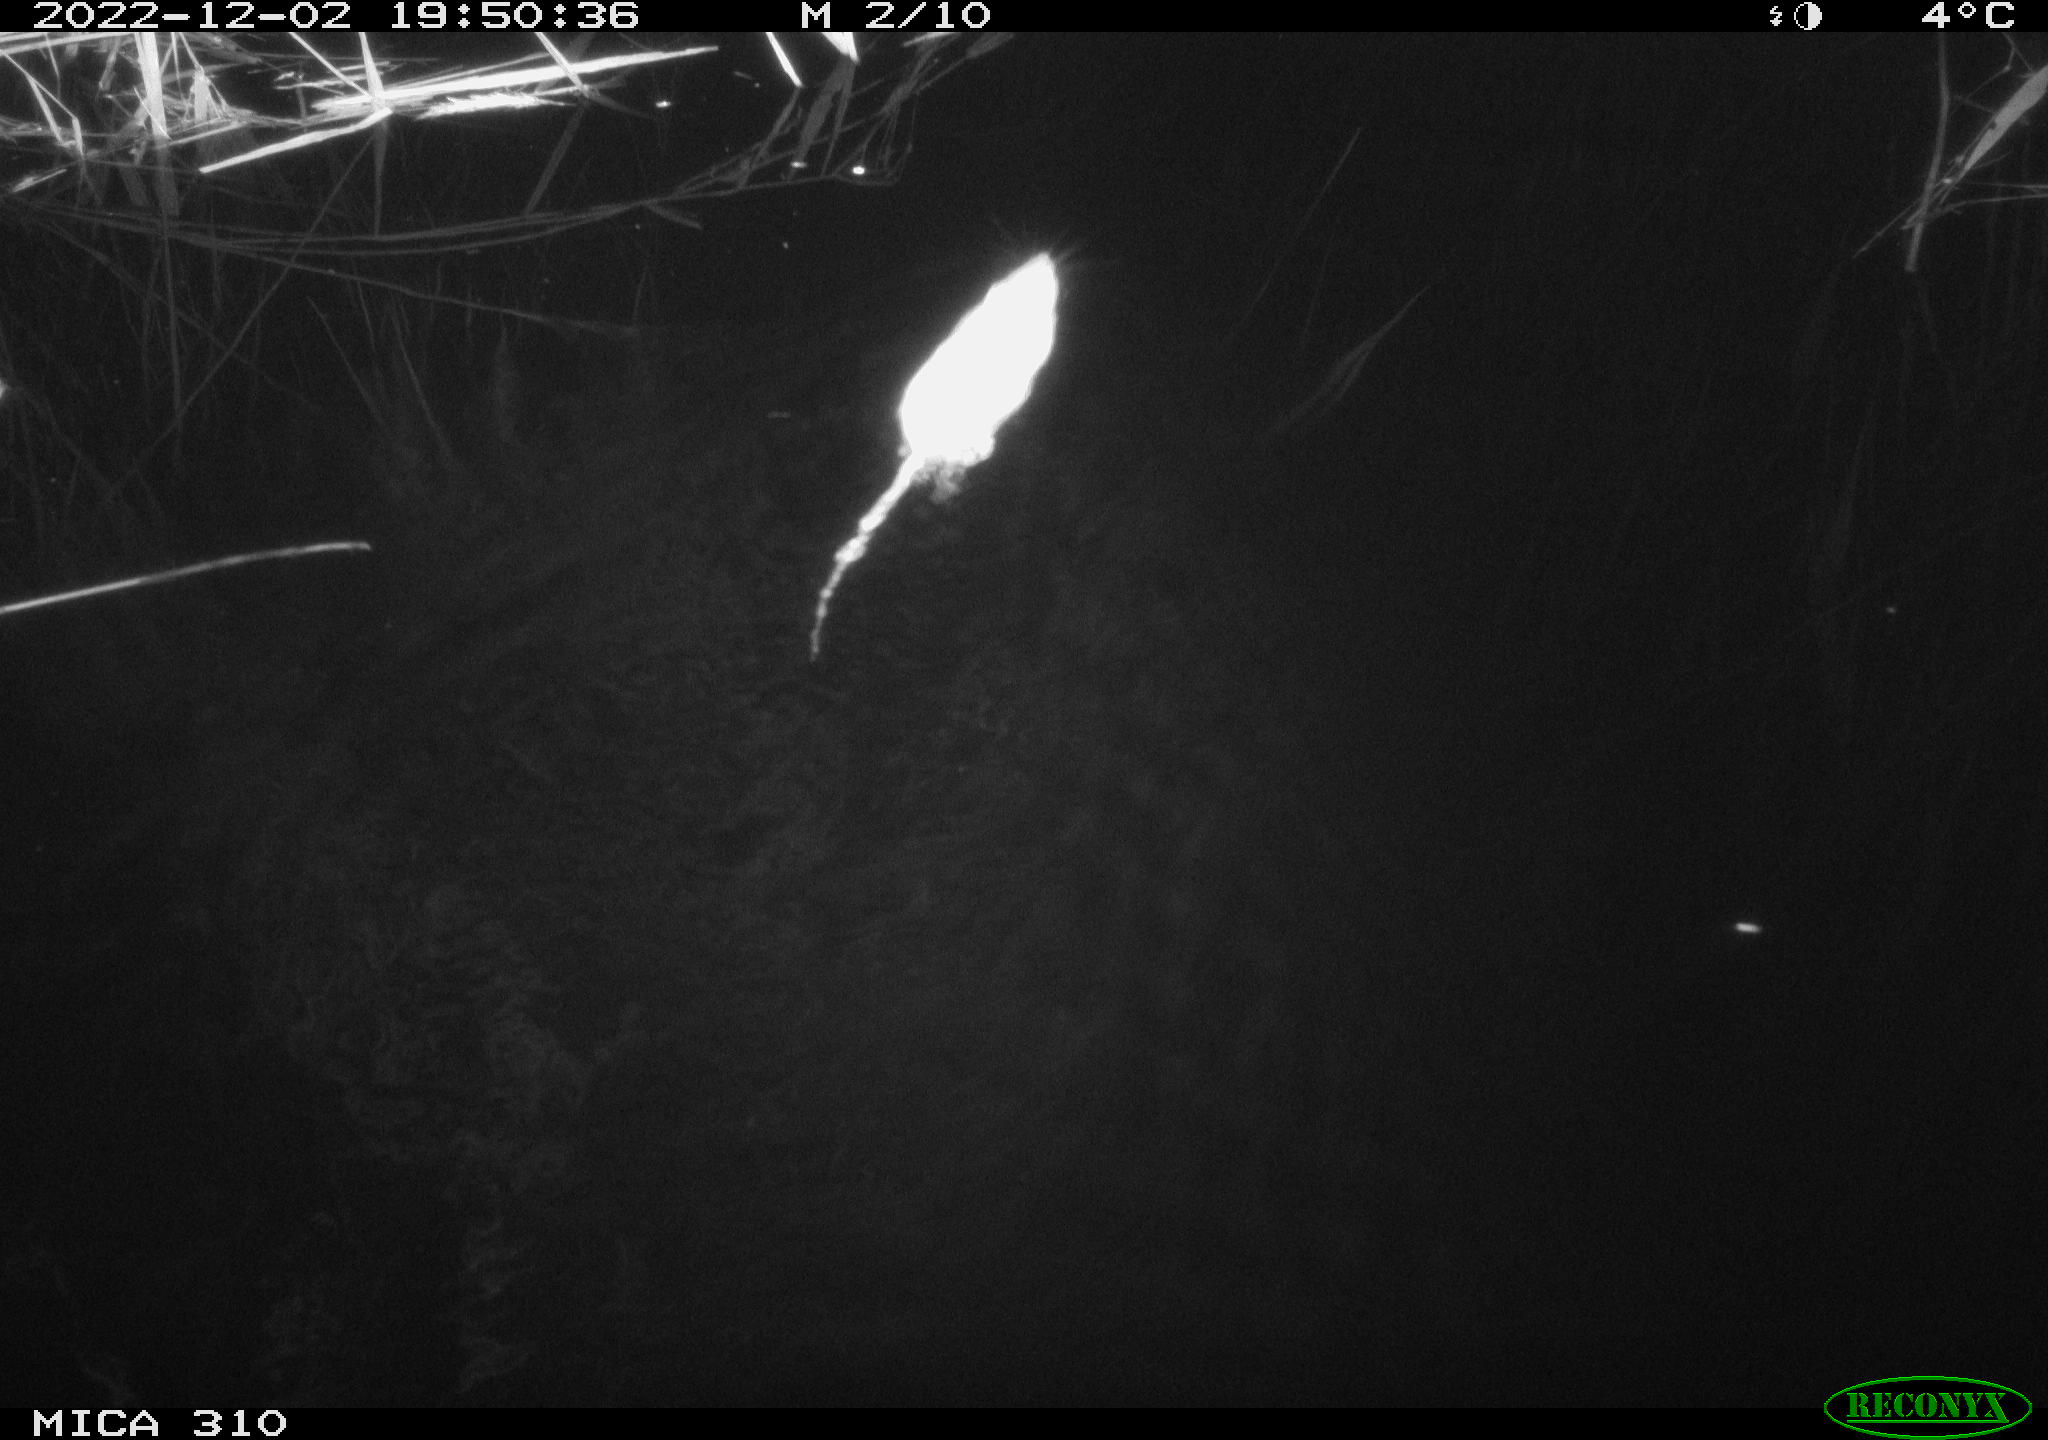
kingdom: Animalia
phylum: Chordata
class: Mammalia
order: Rodentia
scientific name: Rodentia
